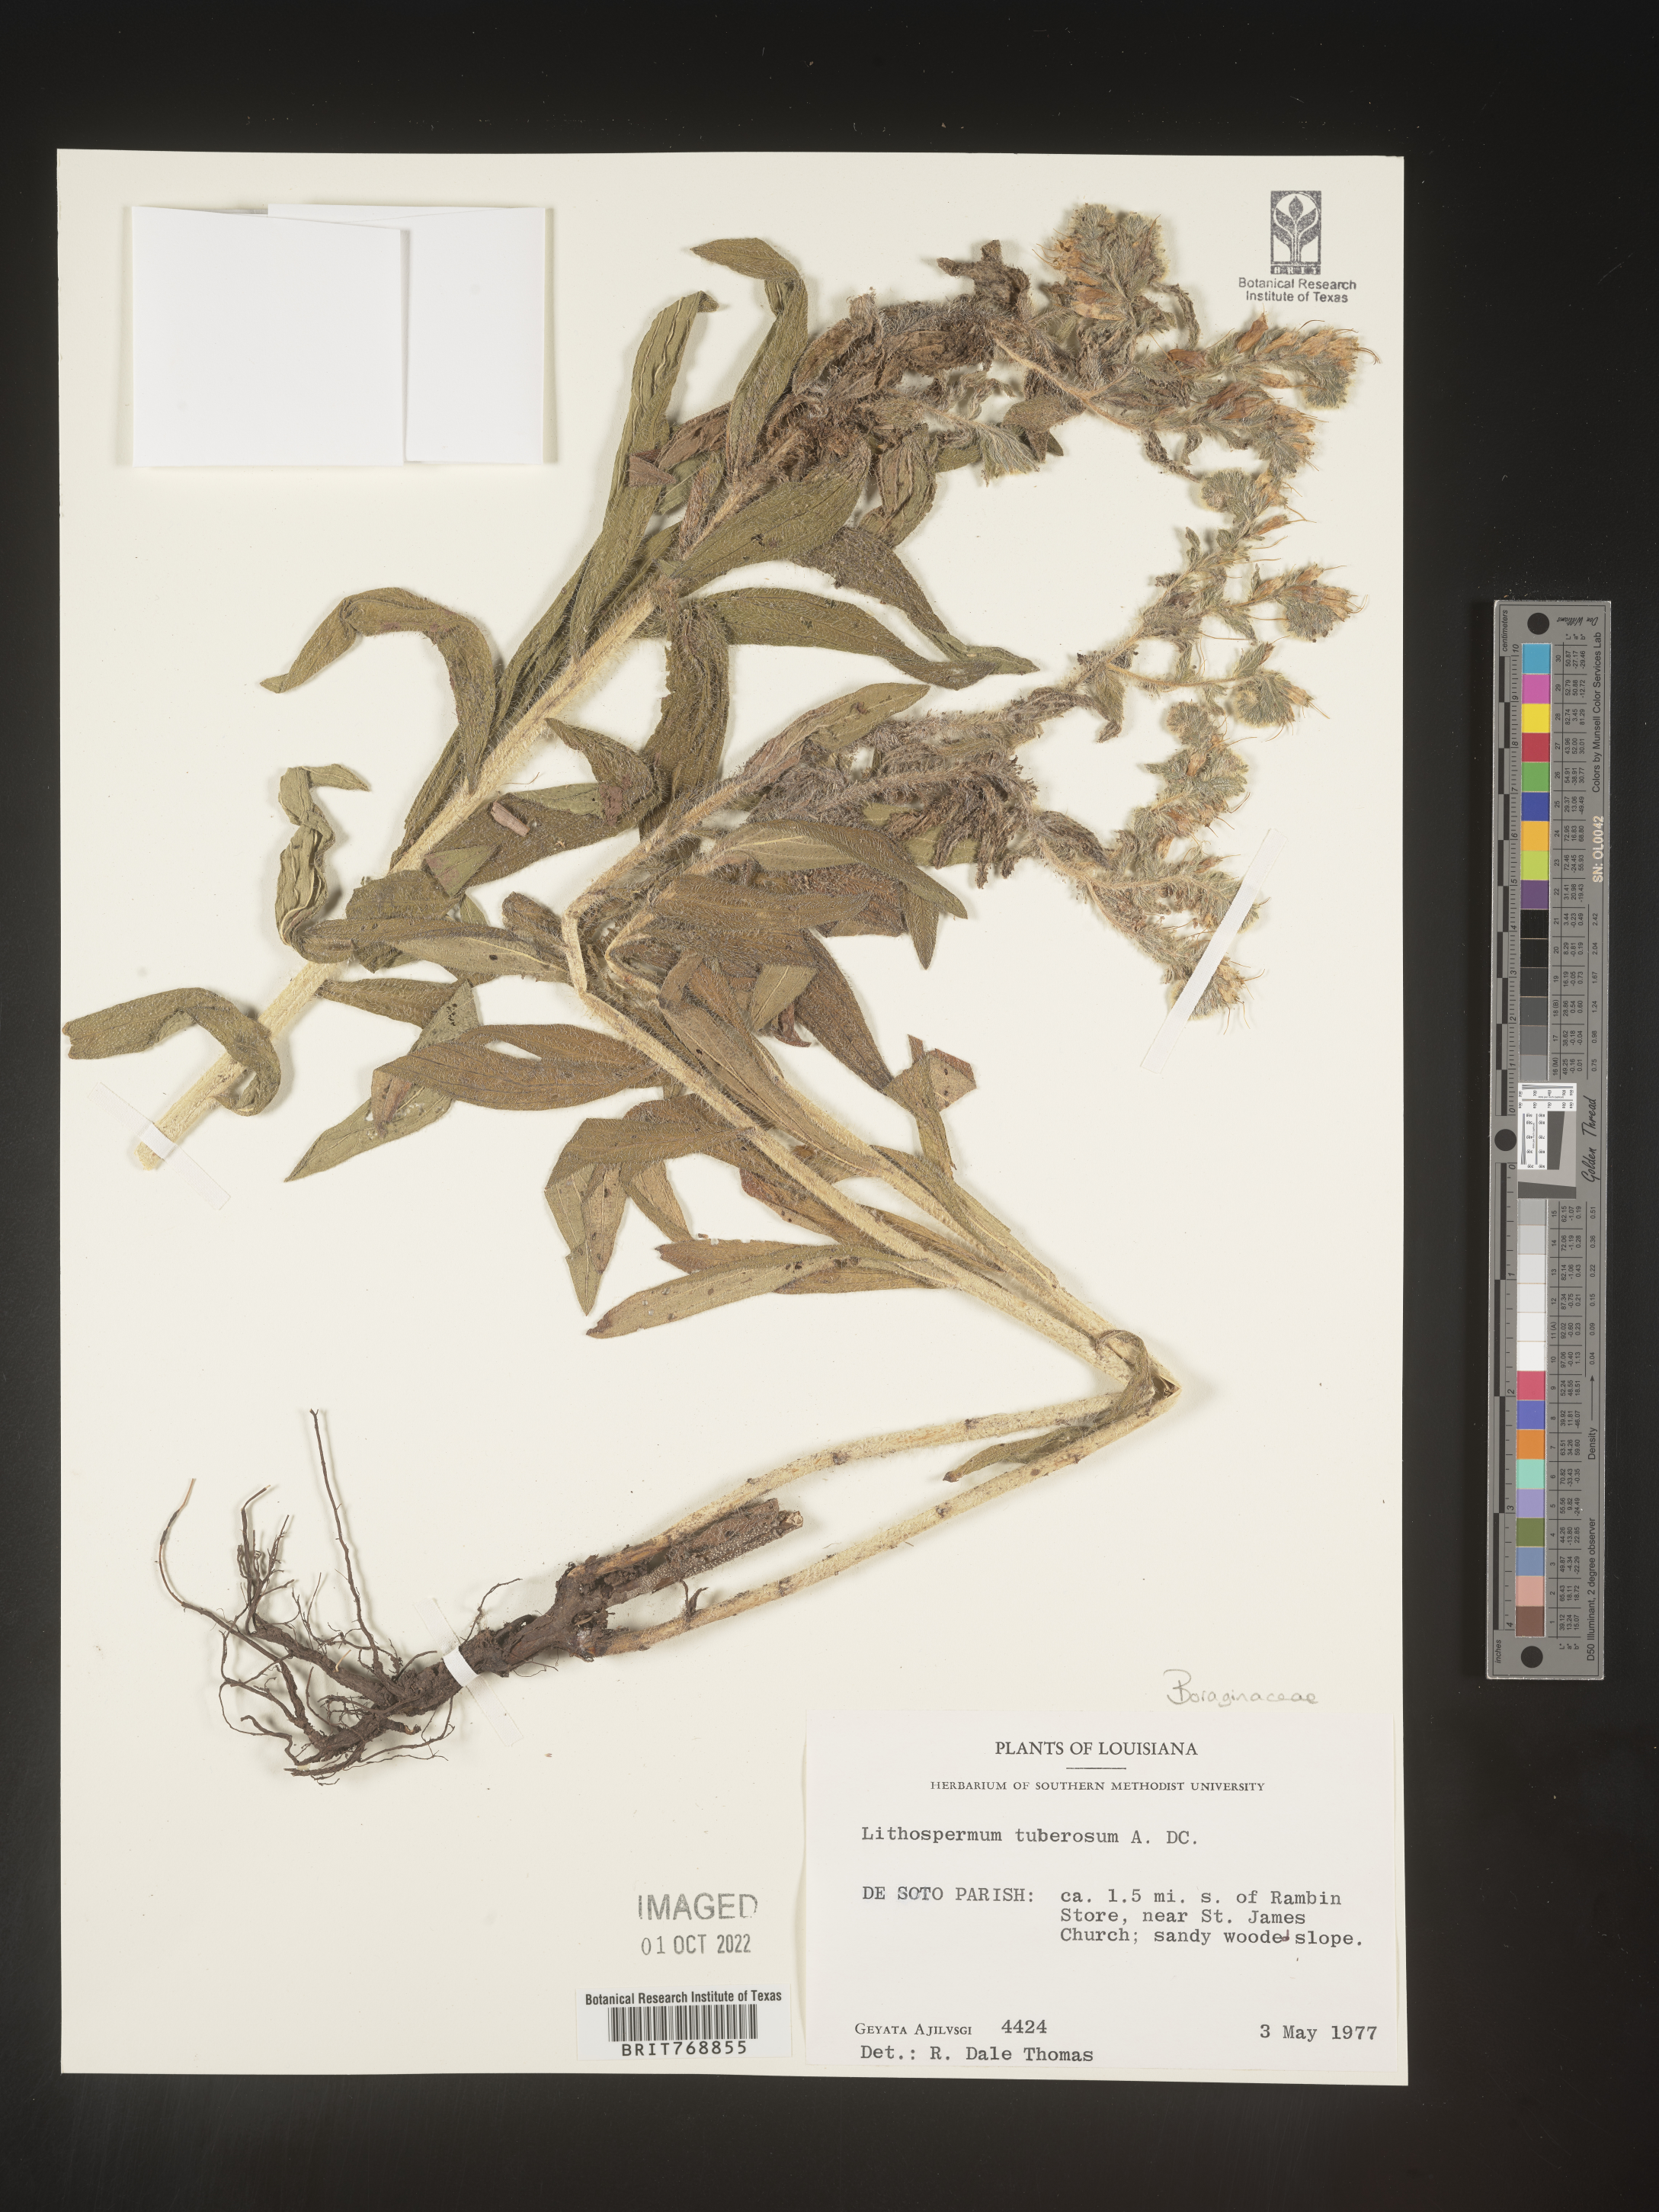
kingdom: Plantae
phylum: Tracheophyta
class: Magnoliopsida
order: Boraginales
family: Boraginaceae
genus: Lithospermum
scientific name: Lithospermum
